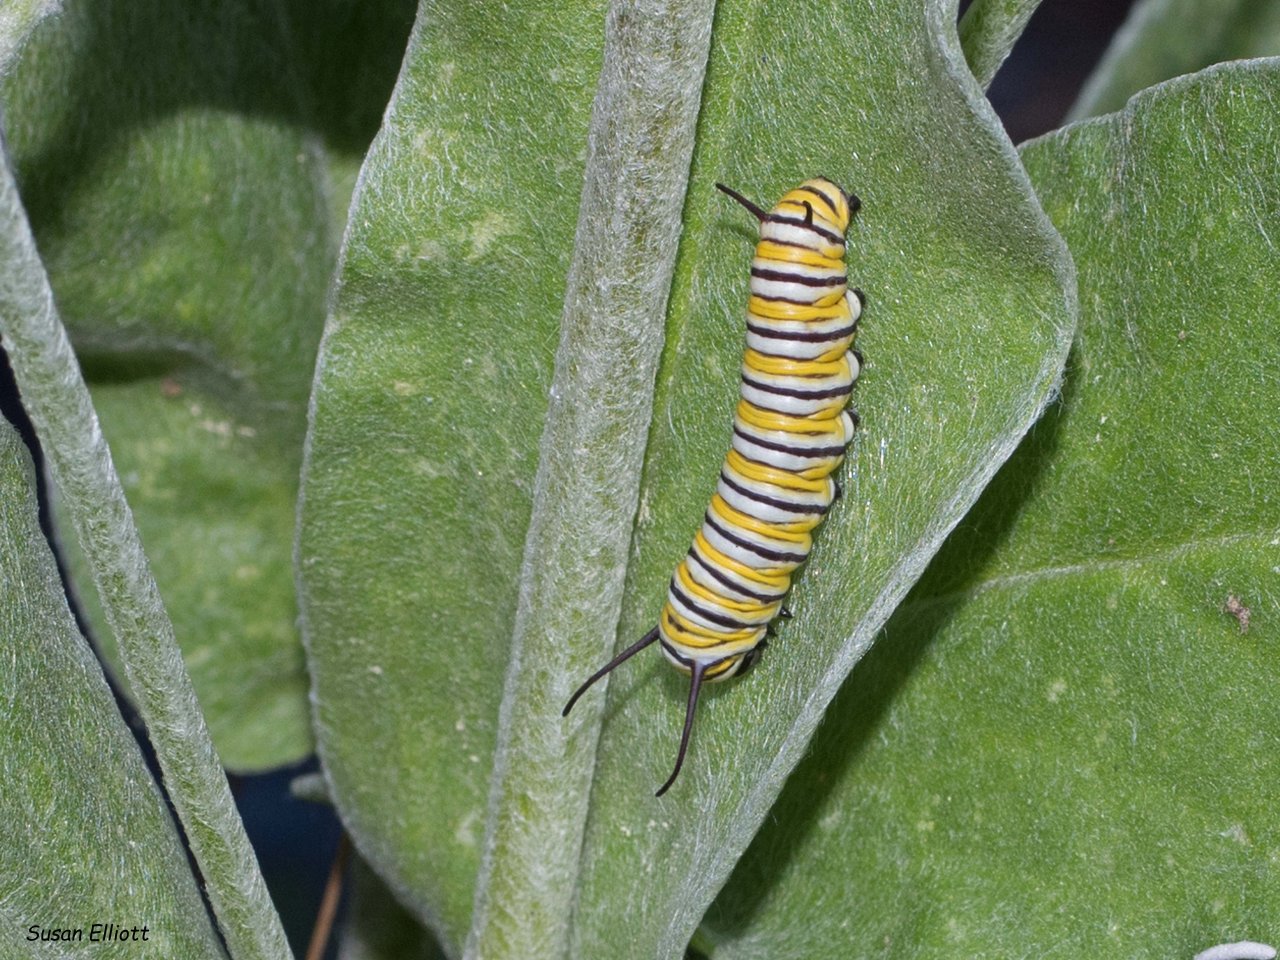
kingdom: Animalia
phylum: Arthropoda
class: Insecta
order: Lepidoptera
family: Nymphalidae
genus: Danaus
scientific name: Danaus plexippus
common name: Monarch
